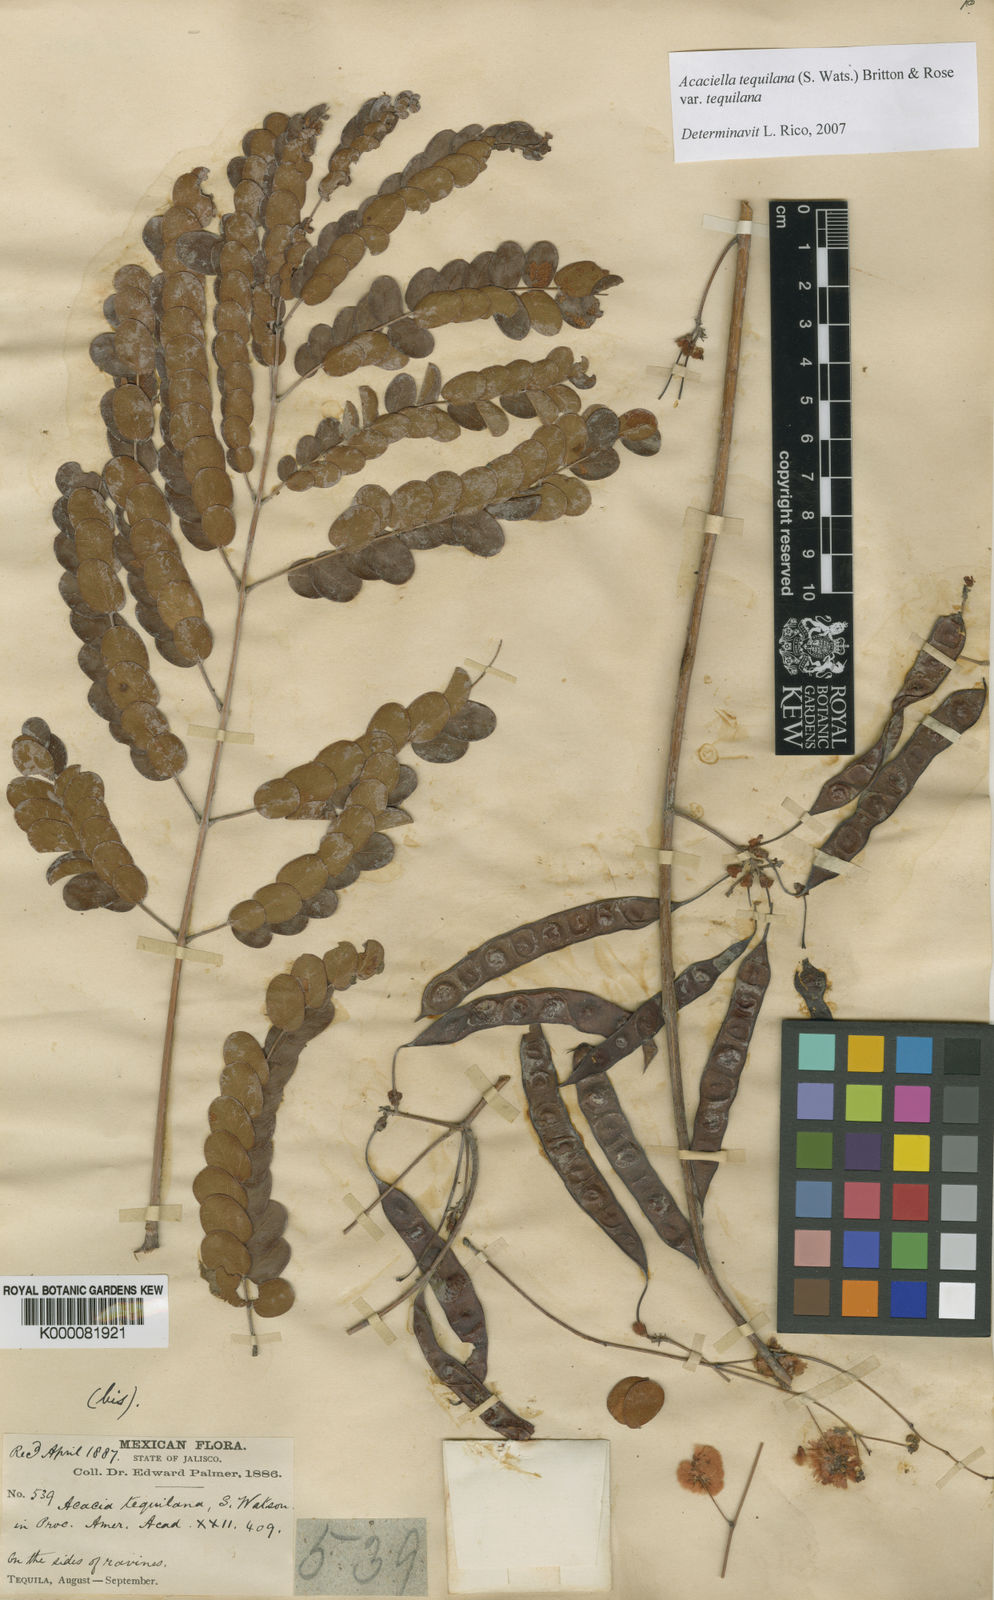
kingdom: Plantae
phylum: Tracheophyta
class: Magnoliopsida
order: Fabales
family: Fabaceae
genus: Acaciella
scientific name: Acaciella tequilana
